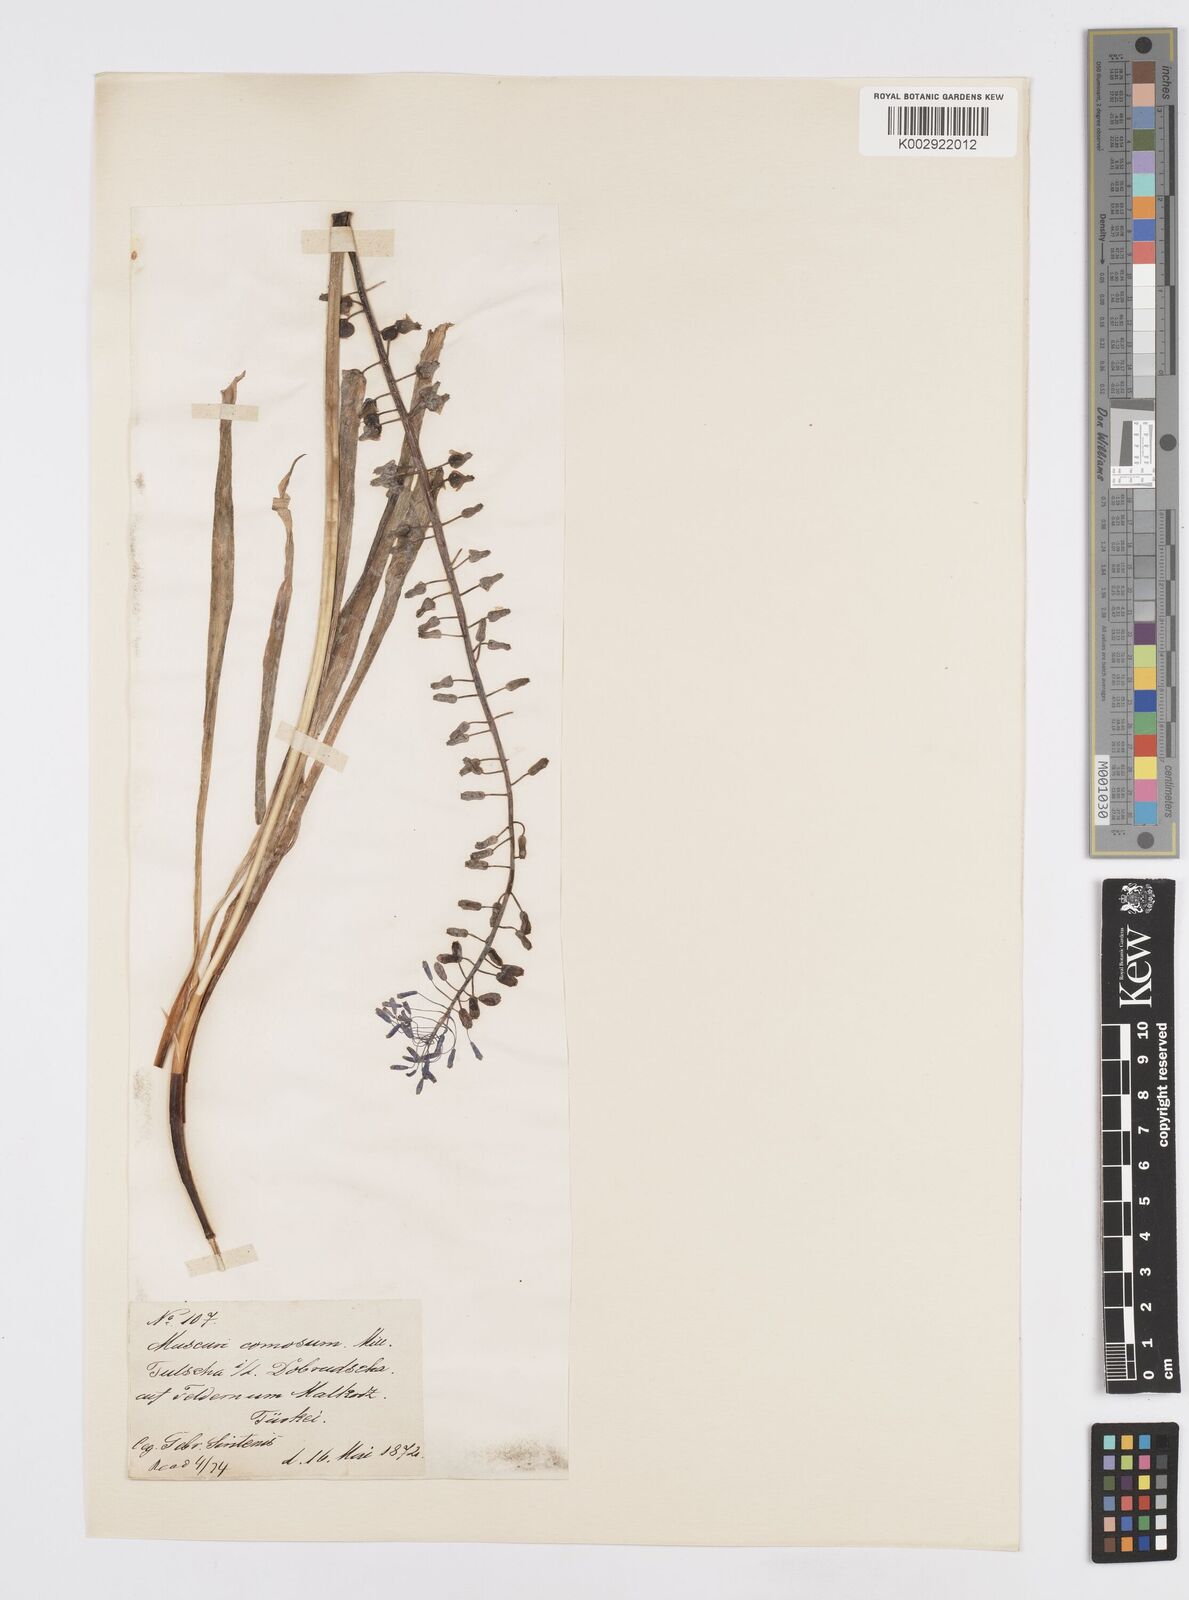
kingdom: Plantae
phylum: Tracheophyta
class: Liliopsida
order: Asparagales
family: Asparagaceae
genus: Muscari
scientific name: Muscari tenuiflorum
